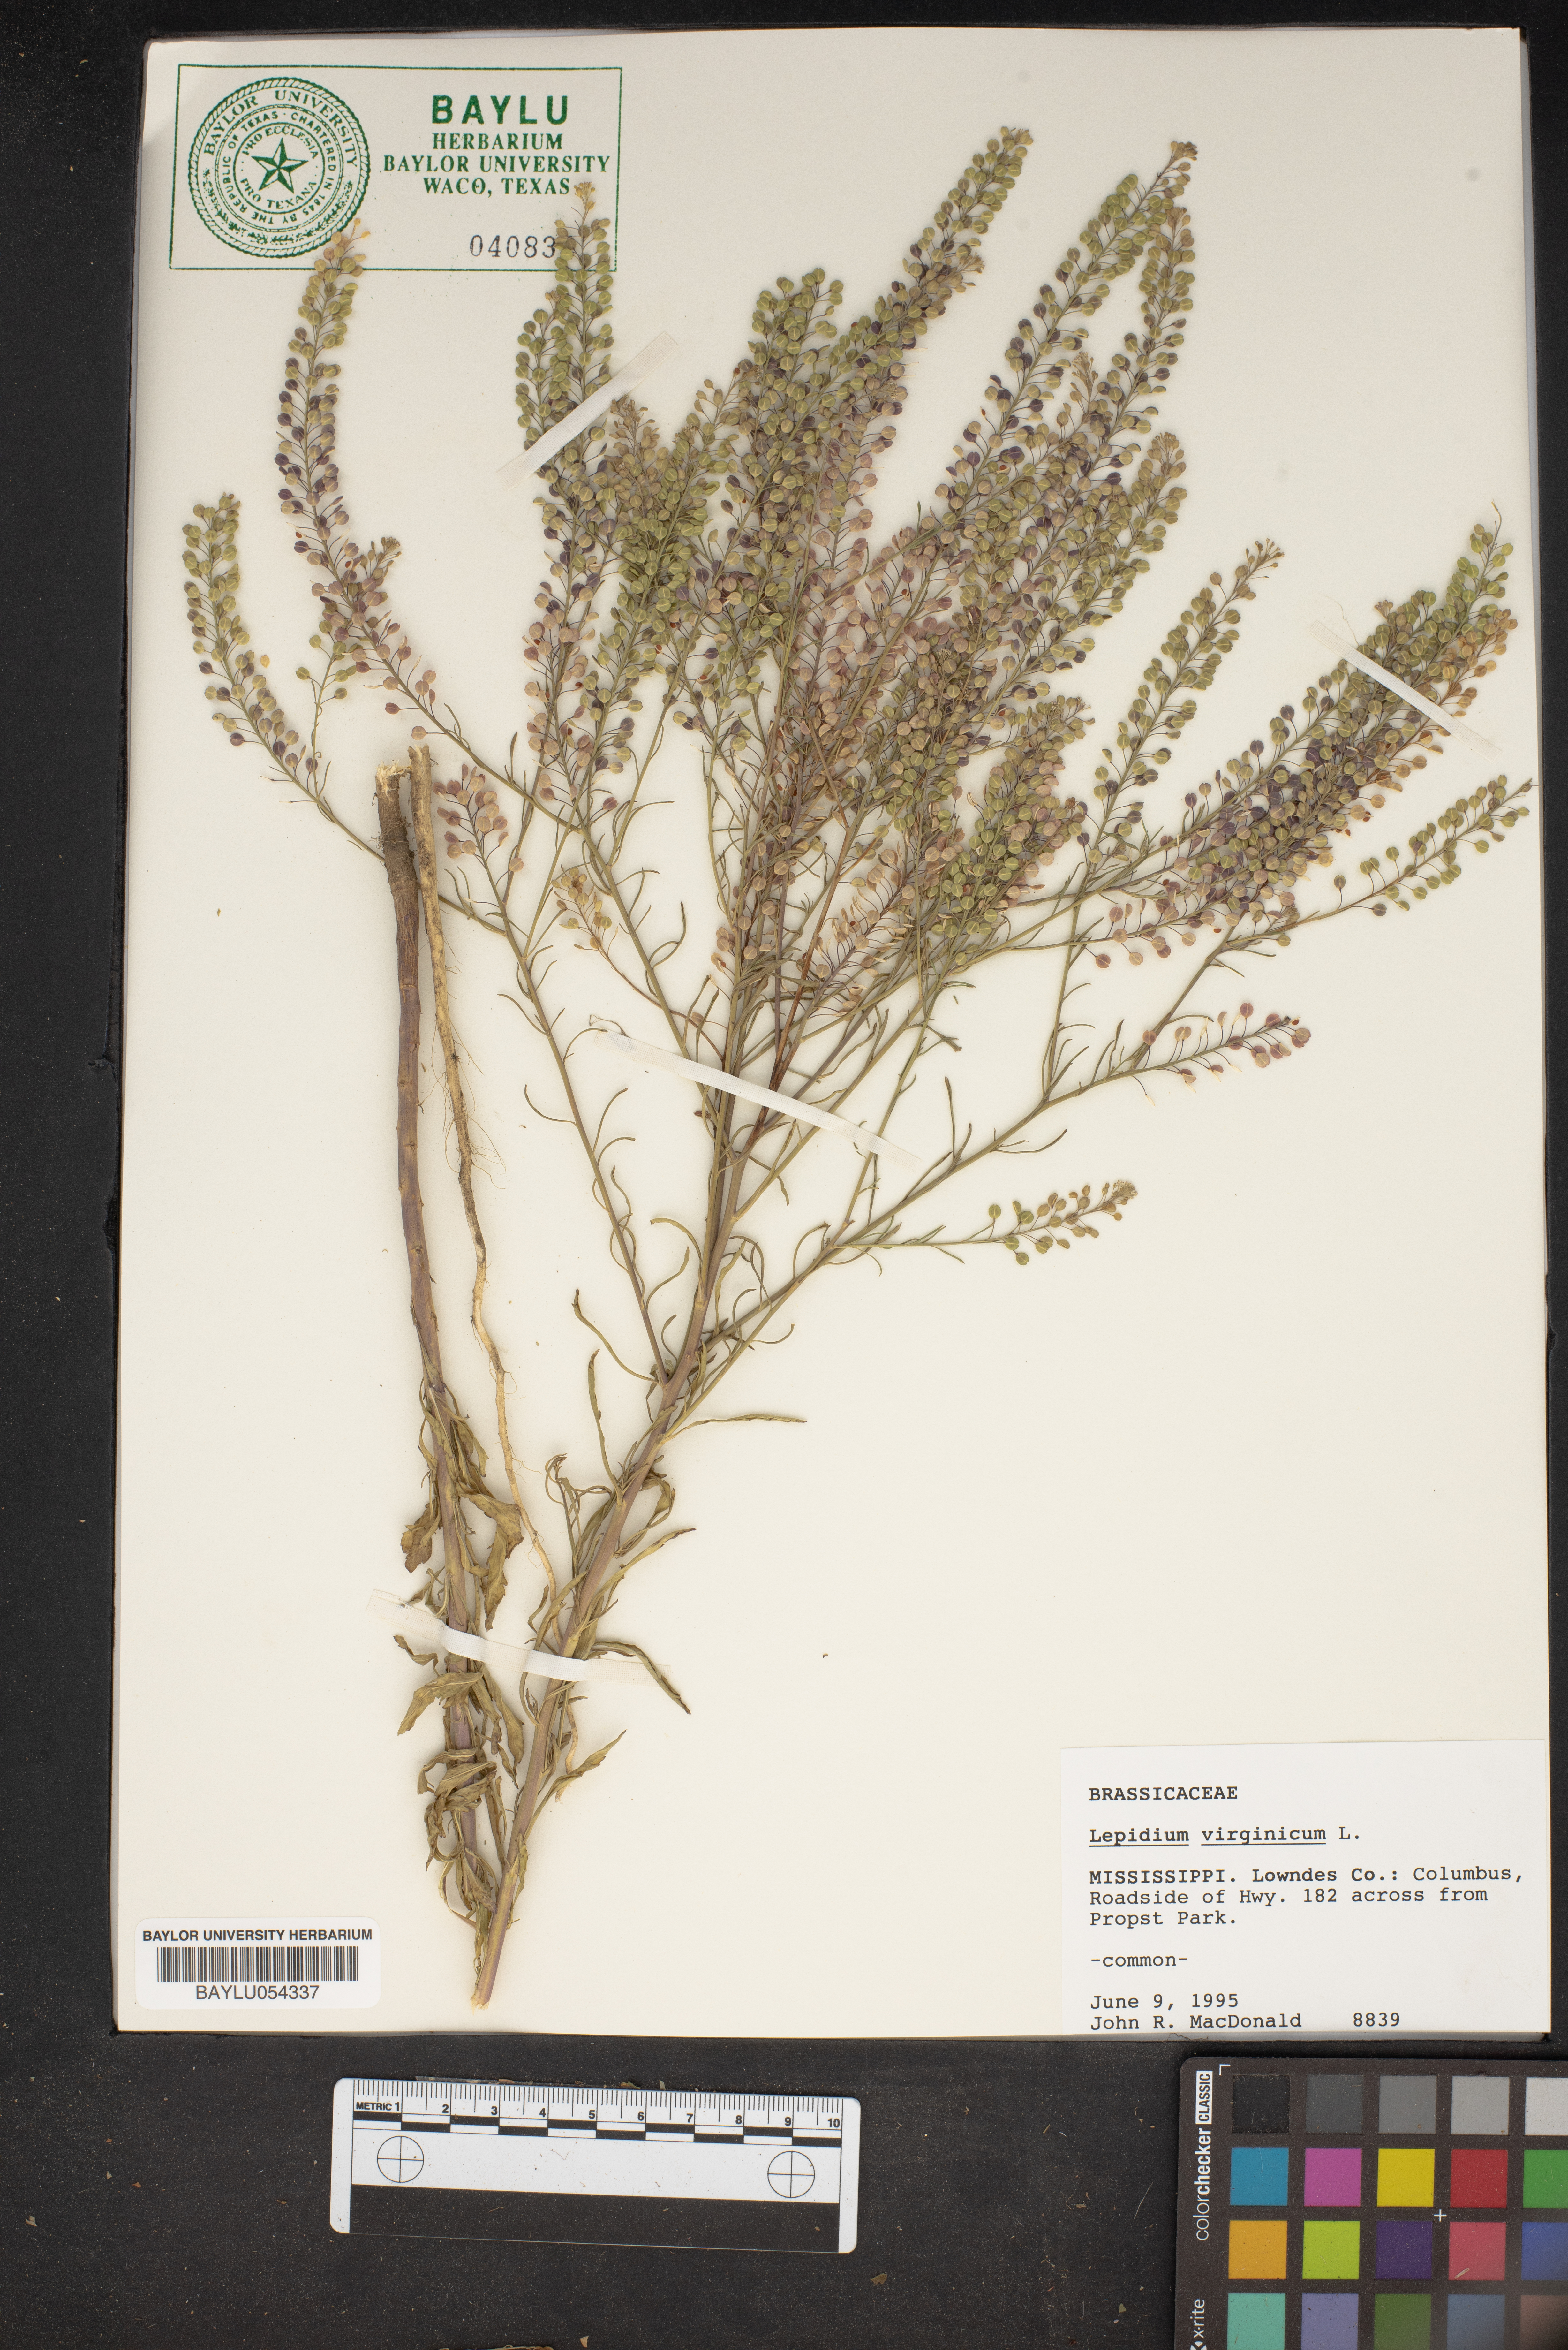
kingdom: Plantae
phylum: Tracheophyta
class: Magnoliopsida
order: Brassicales
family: Brassicaceae
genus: Lepidium
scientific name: Lepidium virginicum
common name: Least pepperwort
